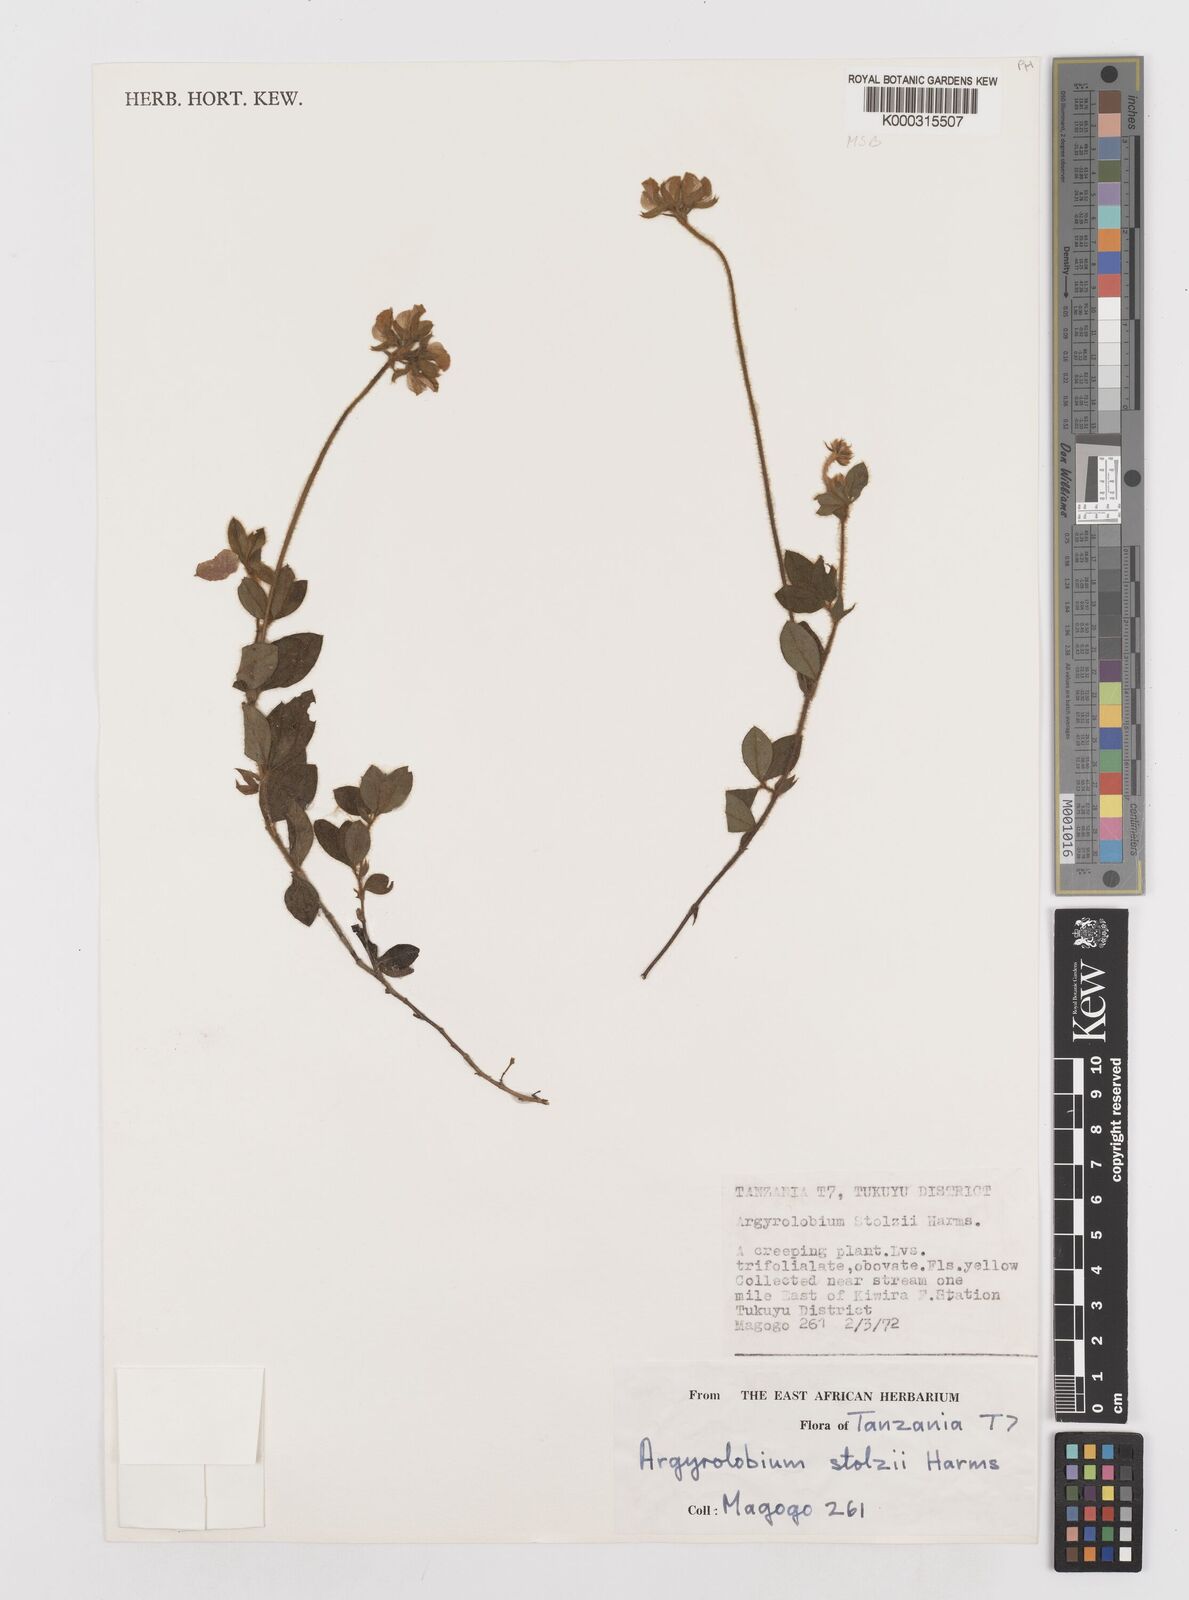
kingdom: Plantae
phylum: Tracheophyta
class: Magnoliopsida
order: Fabales
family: Fabaceae
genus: Argyrolobium
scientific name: Argyrolobium stolzii
